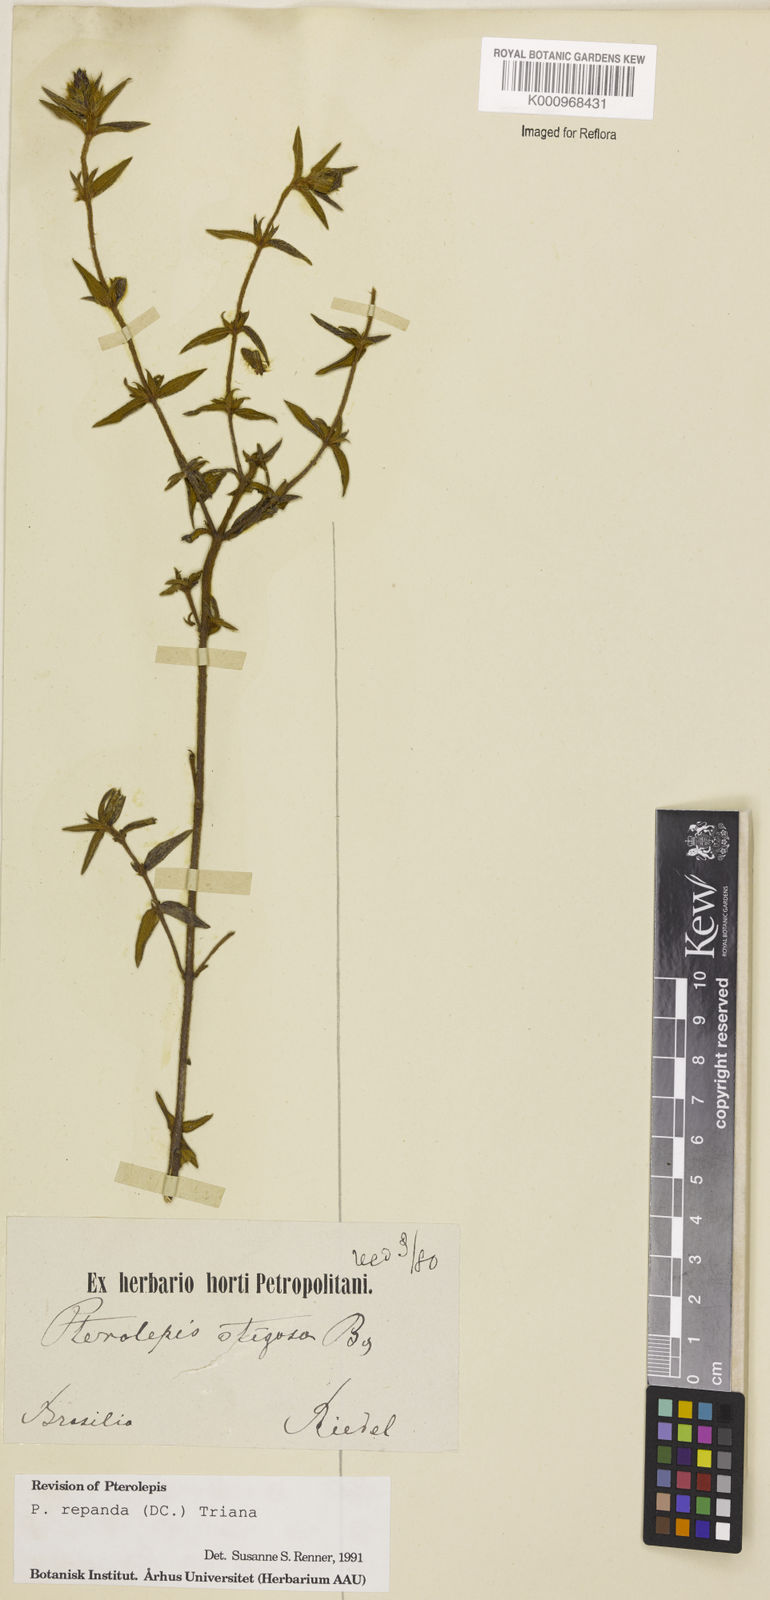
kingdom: Plantae
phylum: Tracheophyta
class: Magnoliopsida
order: Myrtales
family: Melastomataceae
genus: Pterolepis
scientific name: Pterolepis repanda
